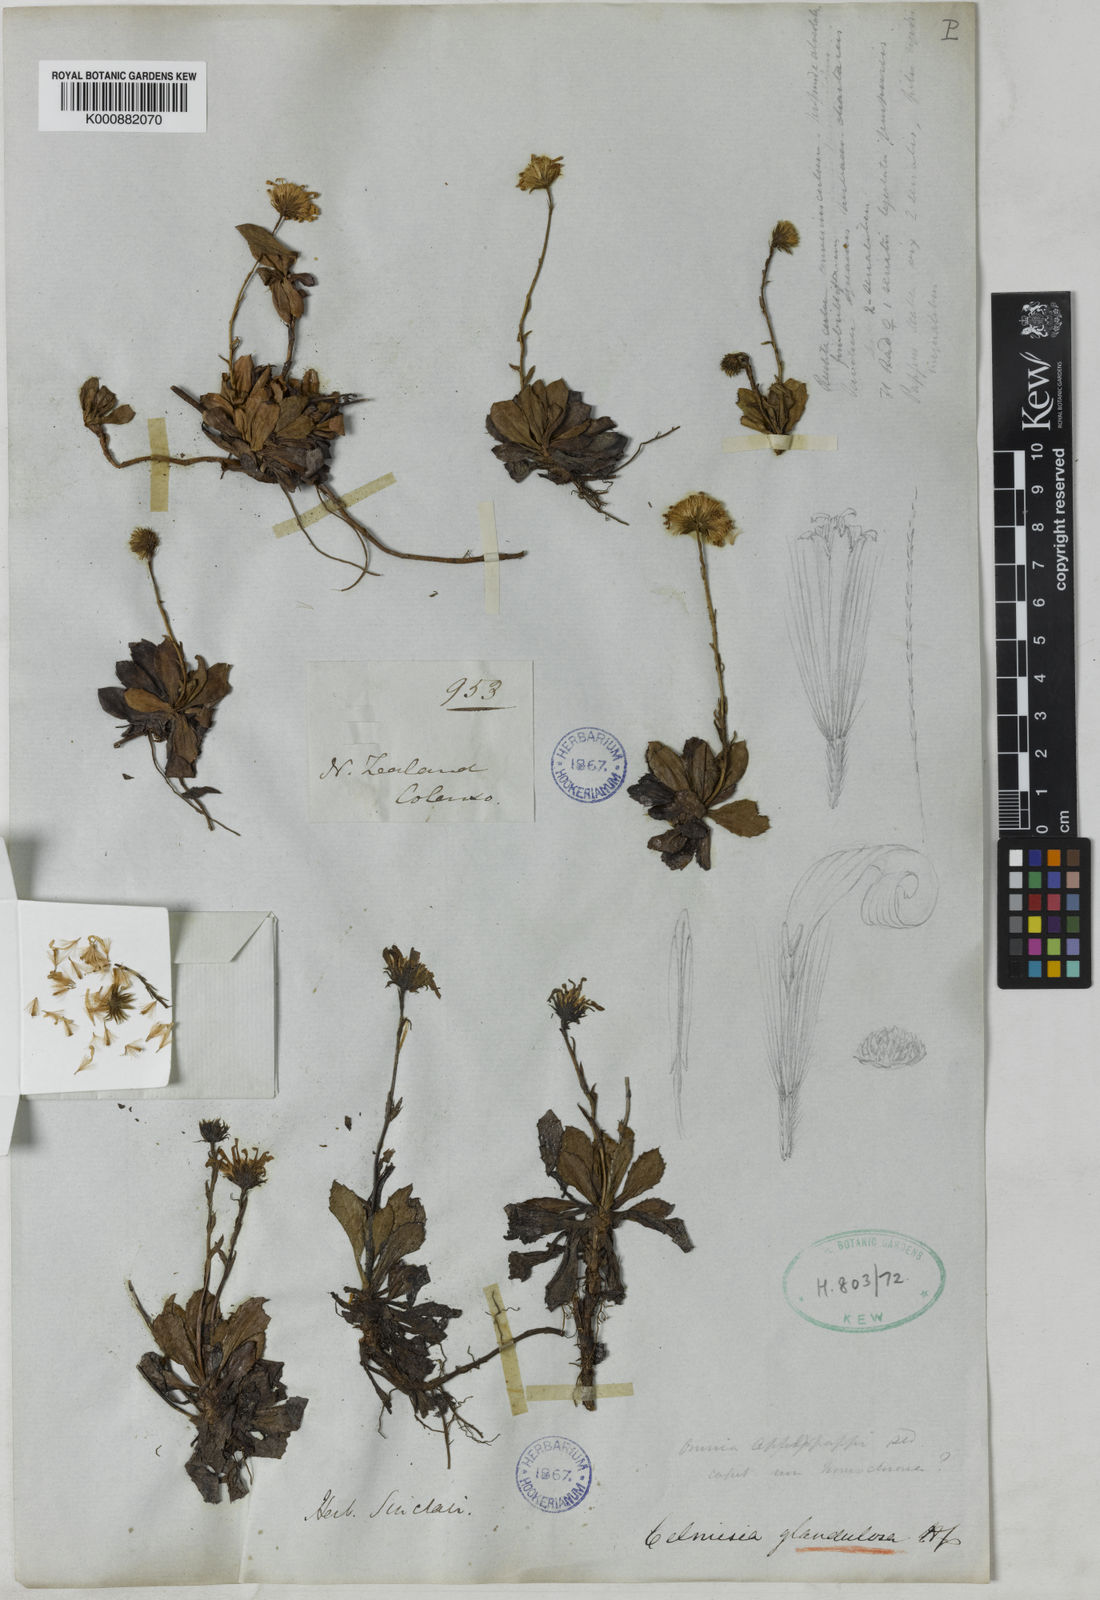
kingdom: Plantae
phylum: Tracheophyta
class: Magnoliopsida
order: Asterales
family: Asteraceae
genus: Celmisia
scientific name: Celmisia glandulosa
